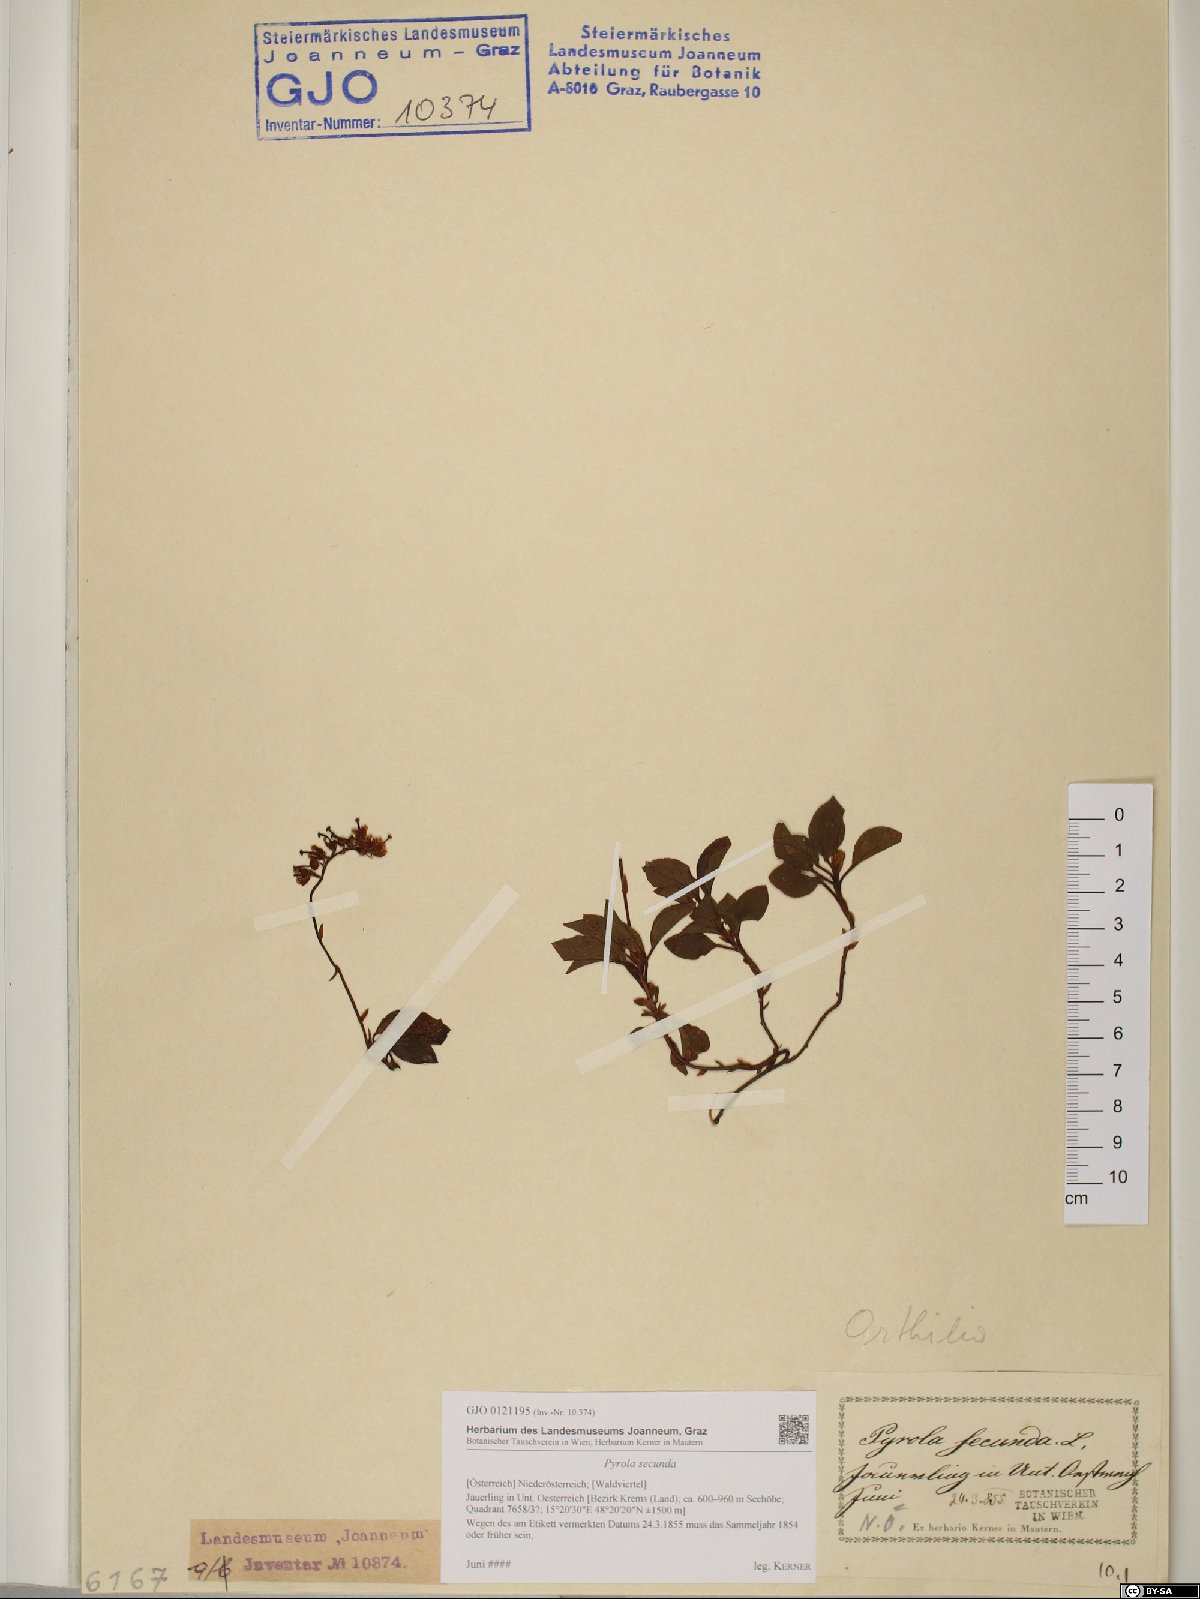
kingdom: Plantae
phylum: Tracheophyta
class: Magnoliopsida
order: Ericales
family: Ericaceae
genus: Orthilia
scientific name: Orthilia secunda
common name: One-sided orthilia
